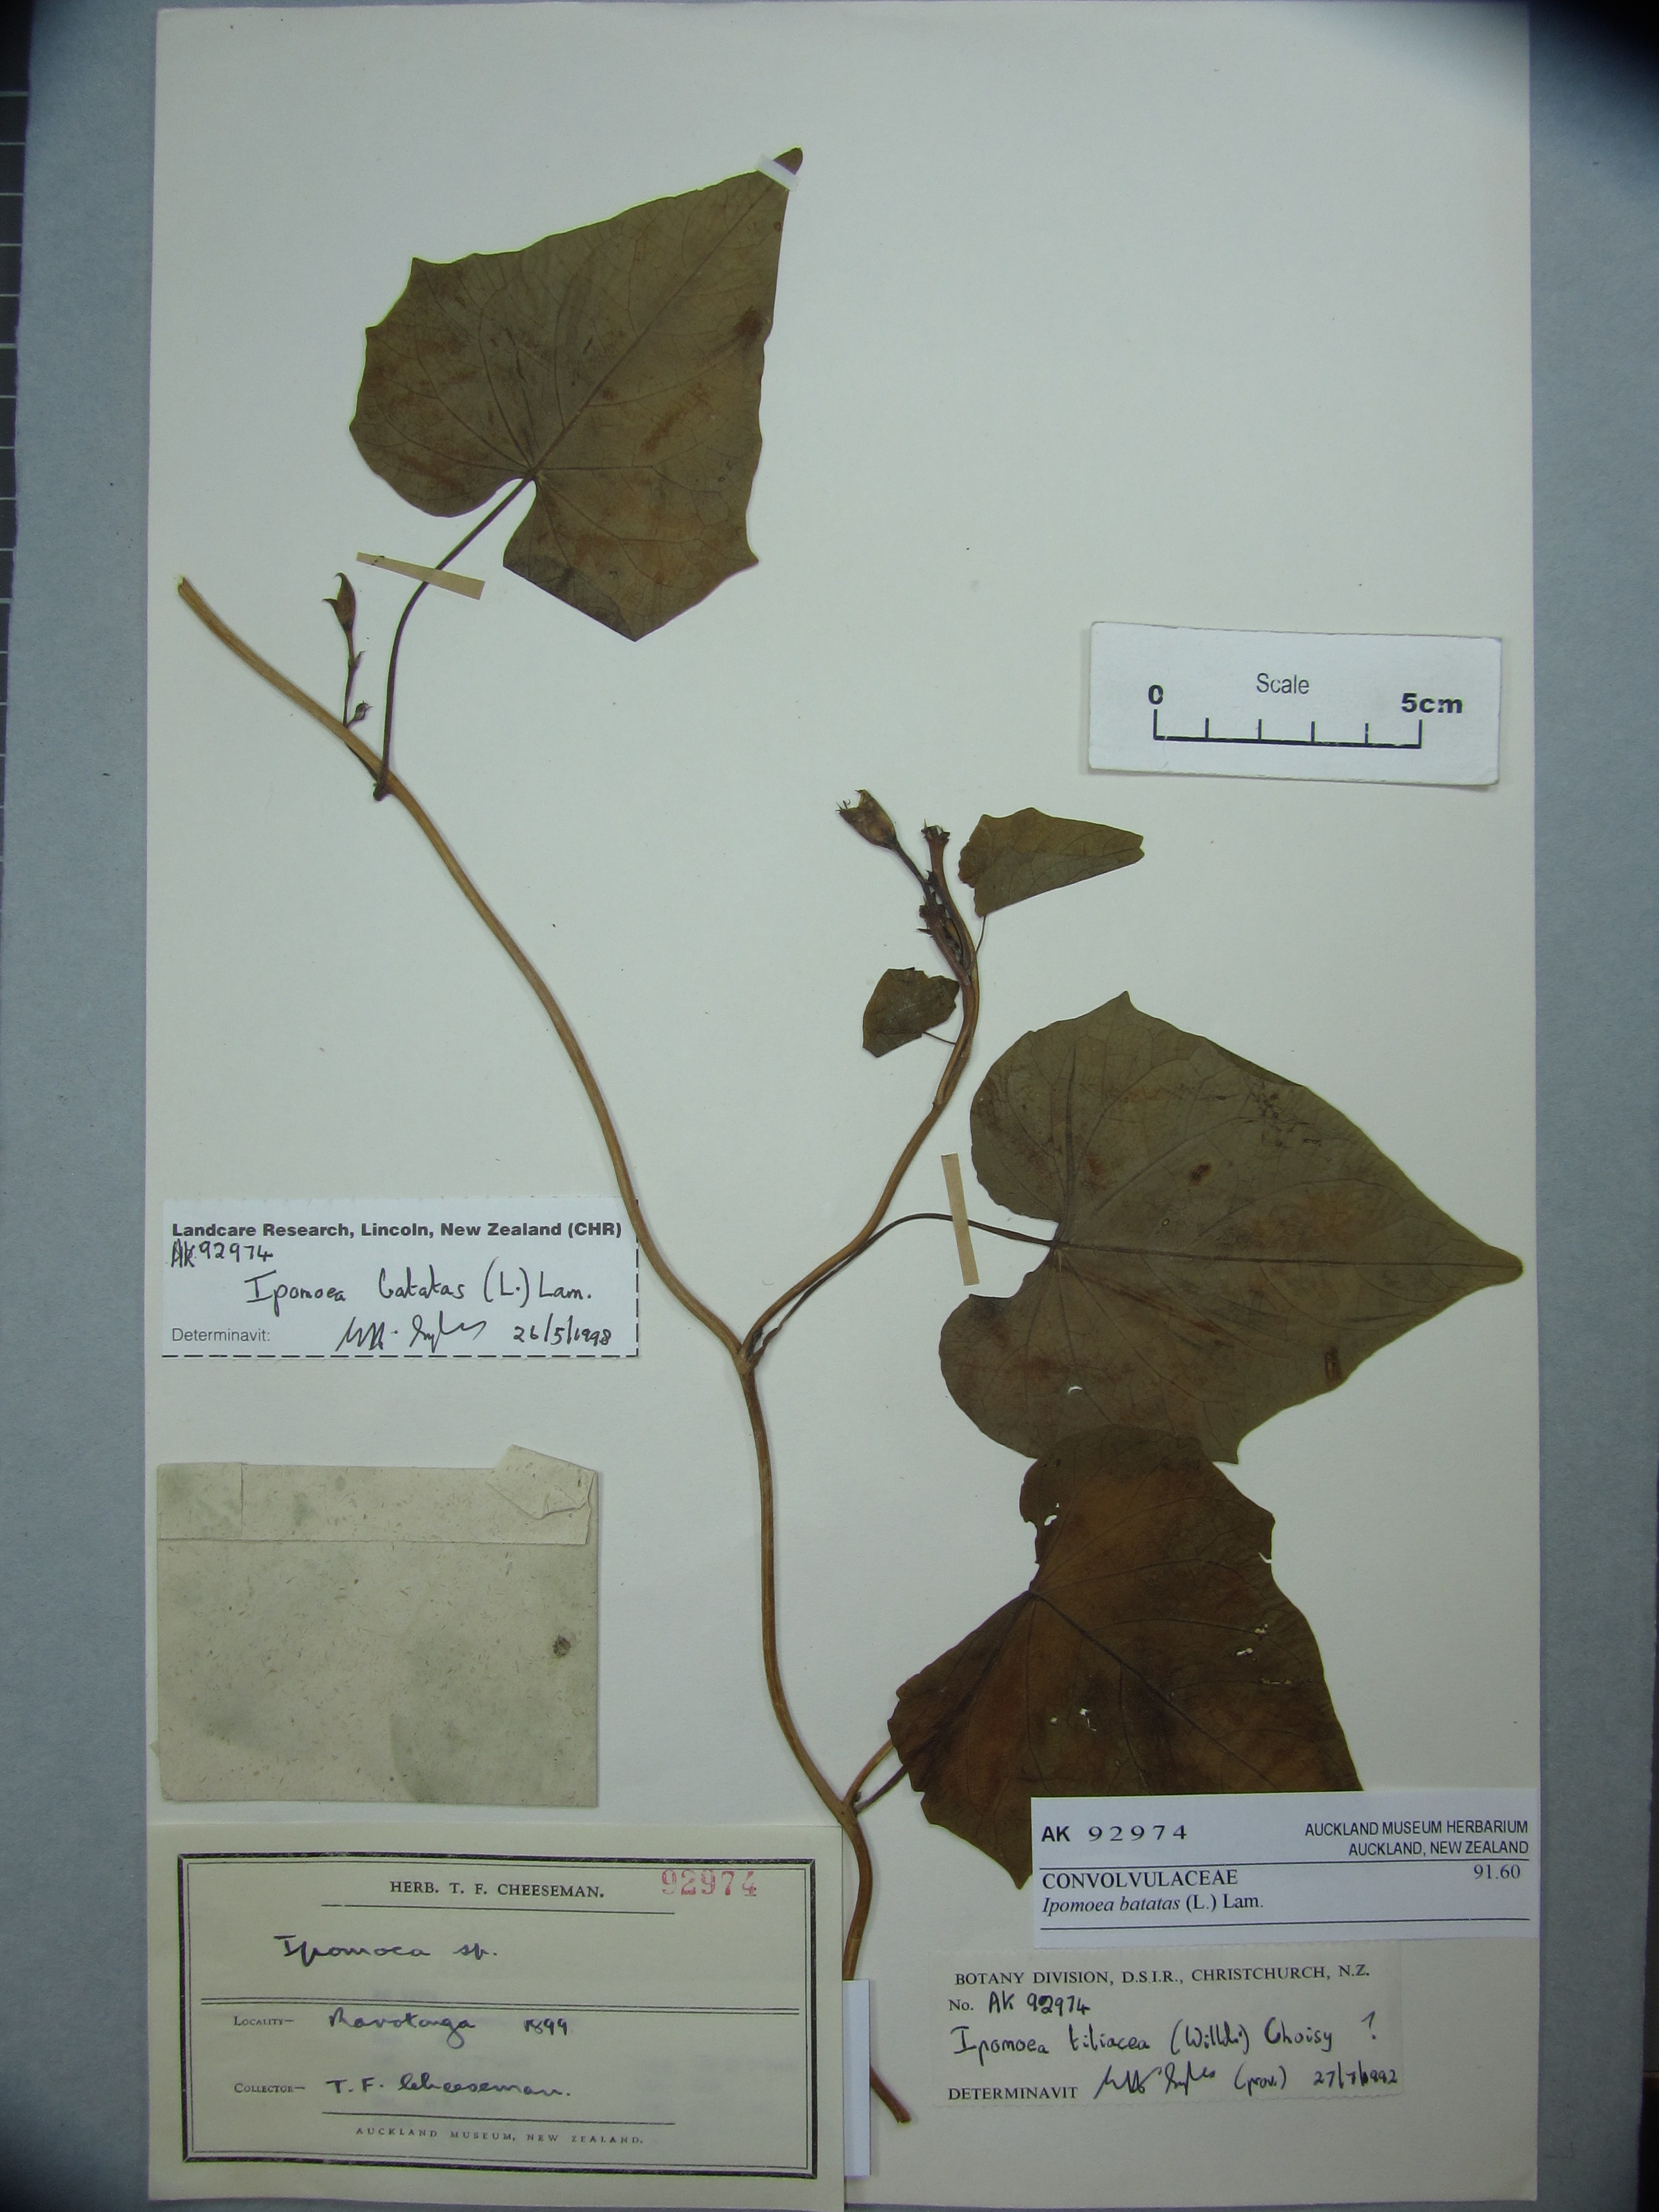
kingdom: Plantae
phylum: Tracheophyta
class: Magnoliopsida
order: Solanales
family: Convolvulaceae
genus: Ipomoea
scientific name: Ipomoea batatas
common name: Sweet-potato
